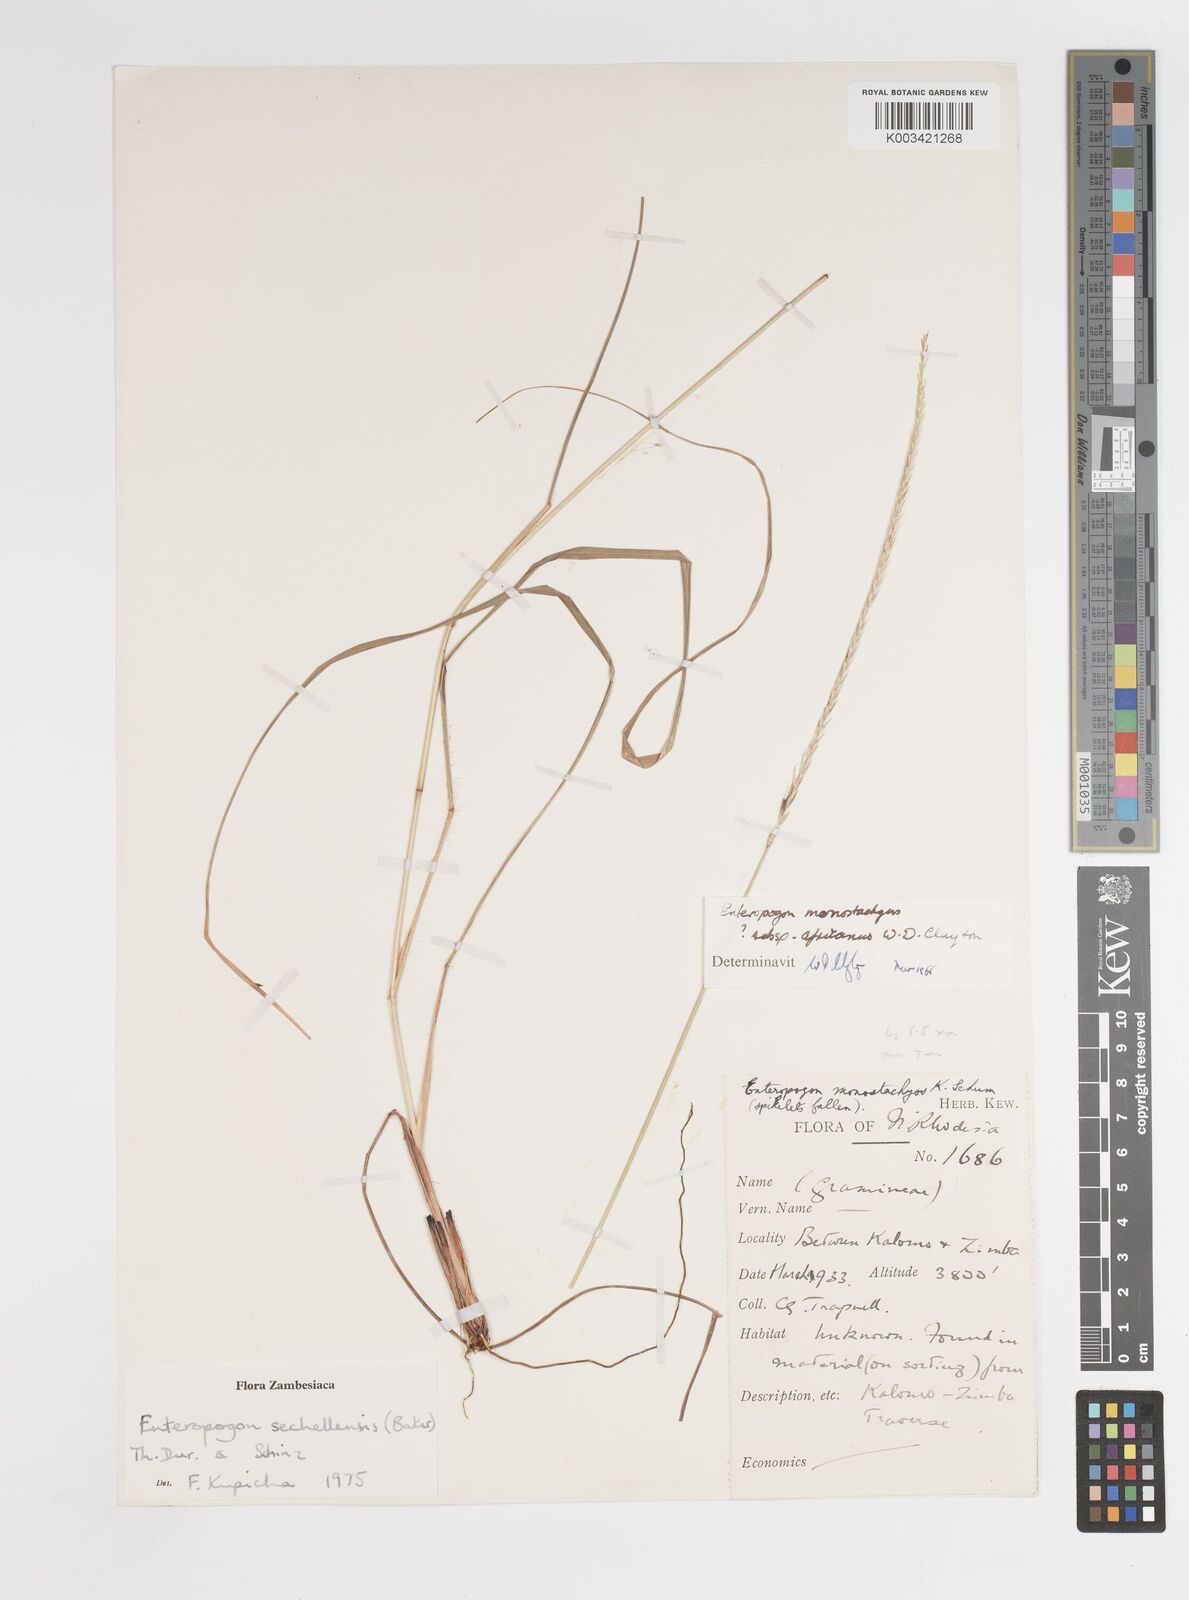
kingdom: Plantae
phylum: Tracheophyta
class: Liliopsida
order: Poales
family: Poaceae
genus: Enteropogon
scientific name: Enteropogon sechellensis
